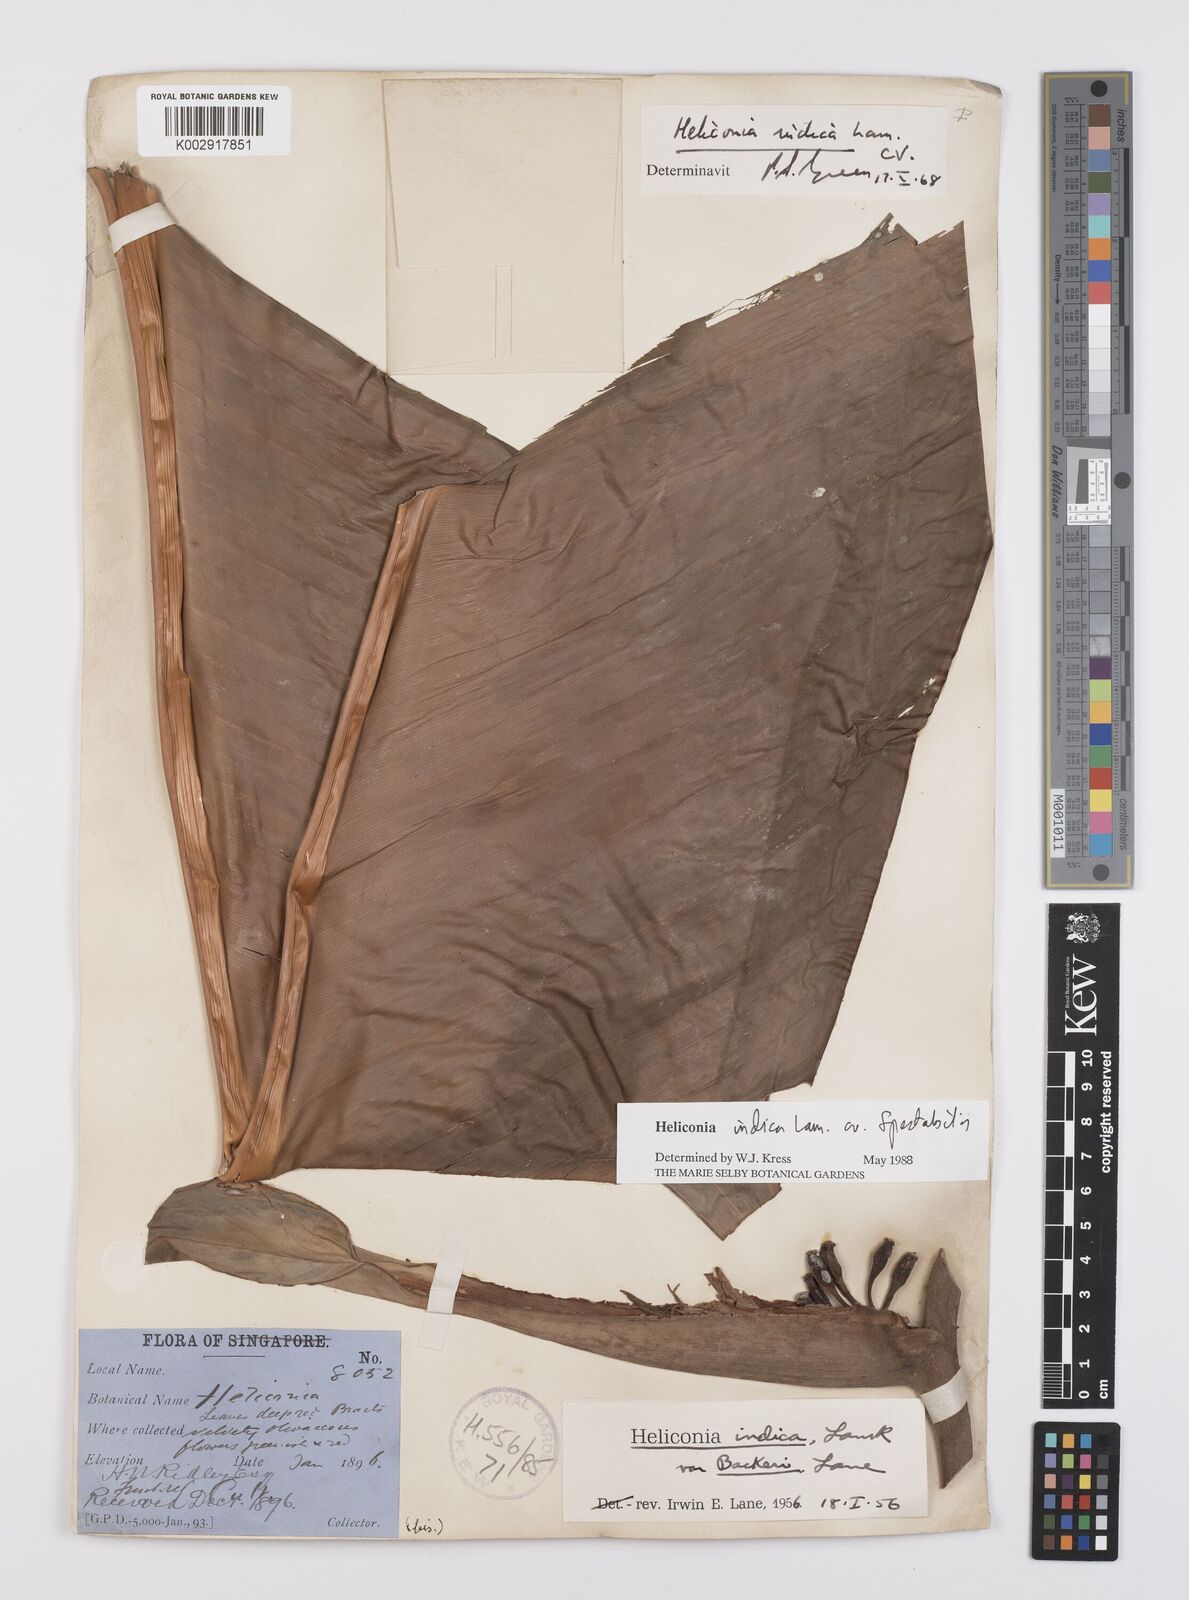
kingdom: Plantae
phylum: Tracheophyta
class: Liliopsida
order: Zingiberales
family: Heliconiaceae
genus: Heliconia
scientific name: Heliconia indica
